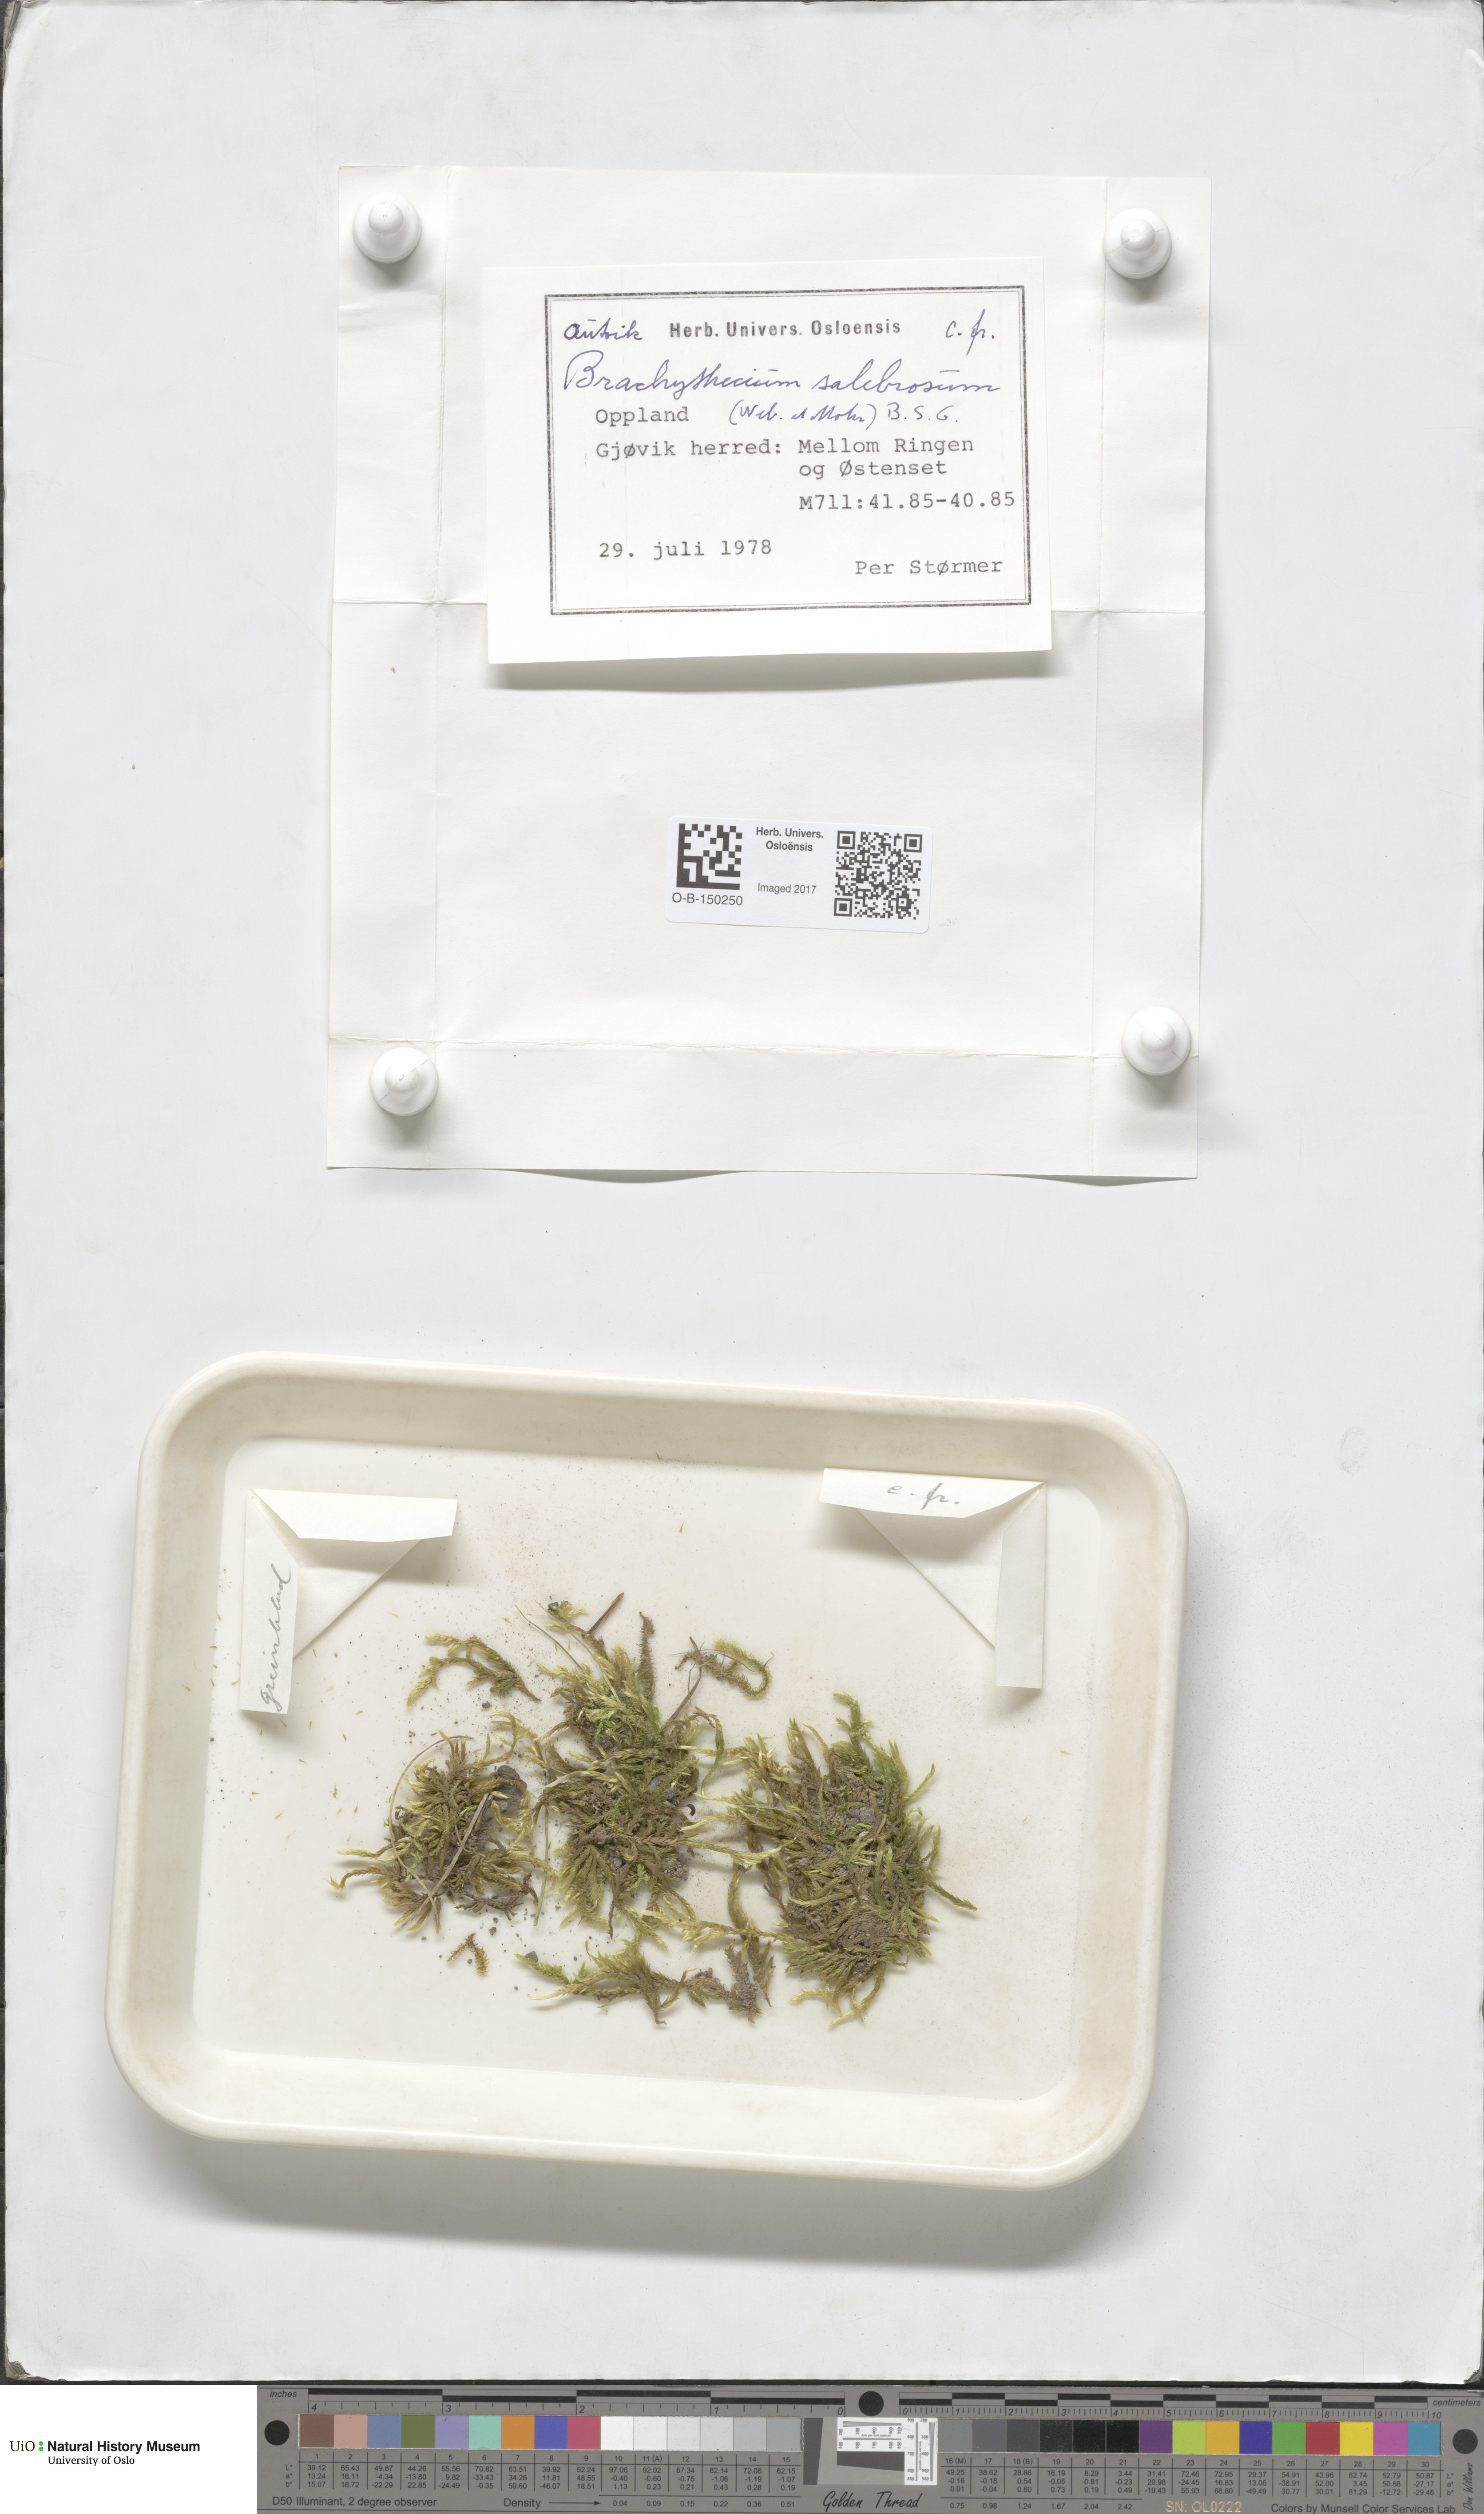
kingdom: Plantae
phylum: Bryophyta
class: Bryopsida
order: Hypnales
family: Brachytheciaceae
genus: Brachythecium
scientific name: Brachythecium salebrosum
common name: Smooth-stalk feather-moss
